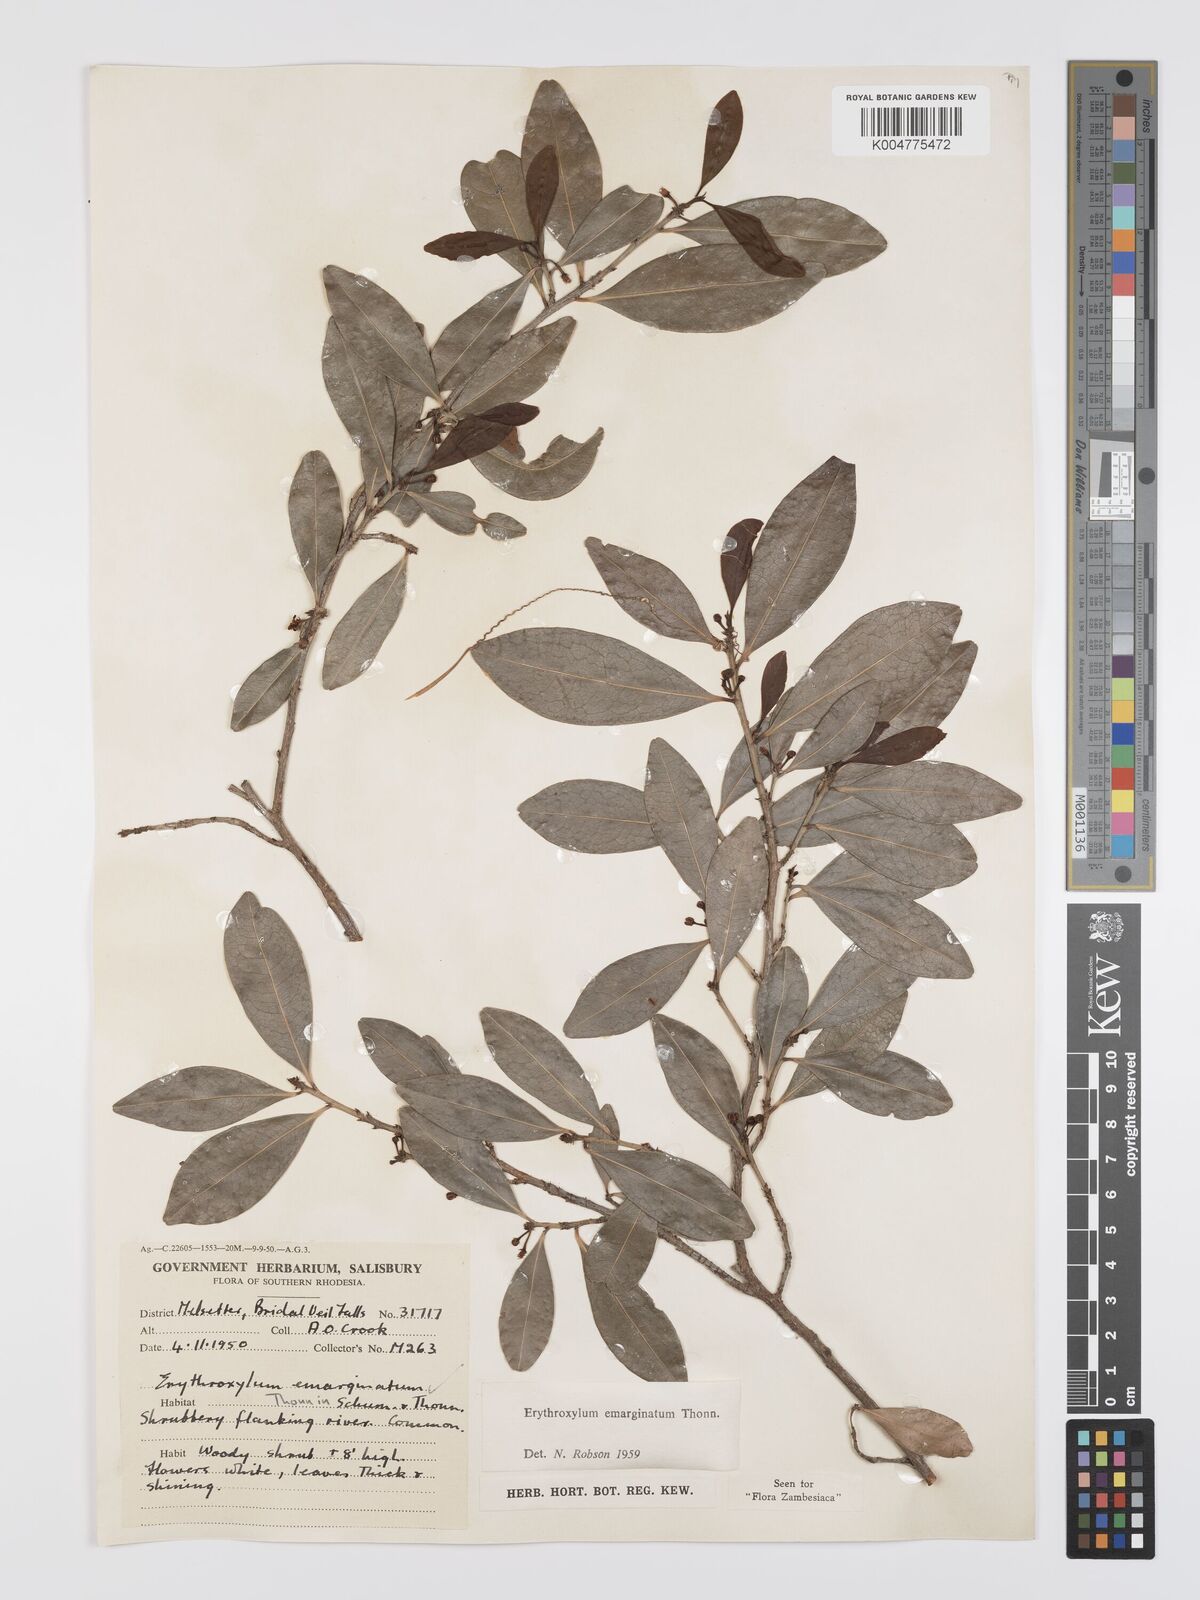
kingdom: Plantae
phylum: Tracheophyta
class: Magnoliopsida
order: Malpighiales
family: Erythroxylaceae
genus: Erythroxylum
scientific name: Erythroxylum emarginatum
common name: African coca-tree
